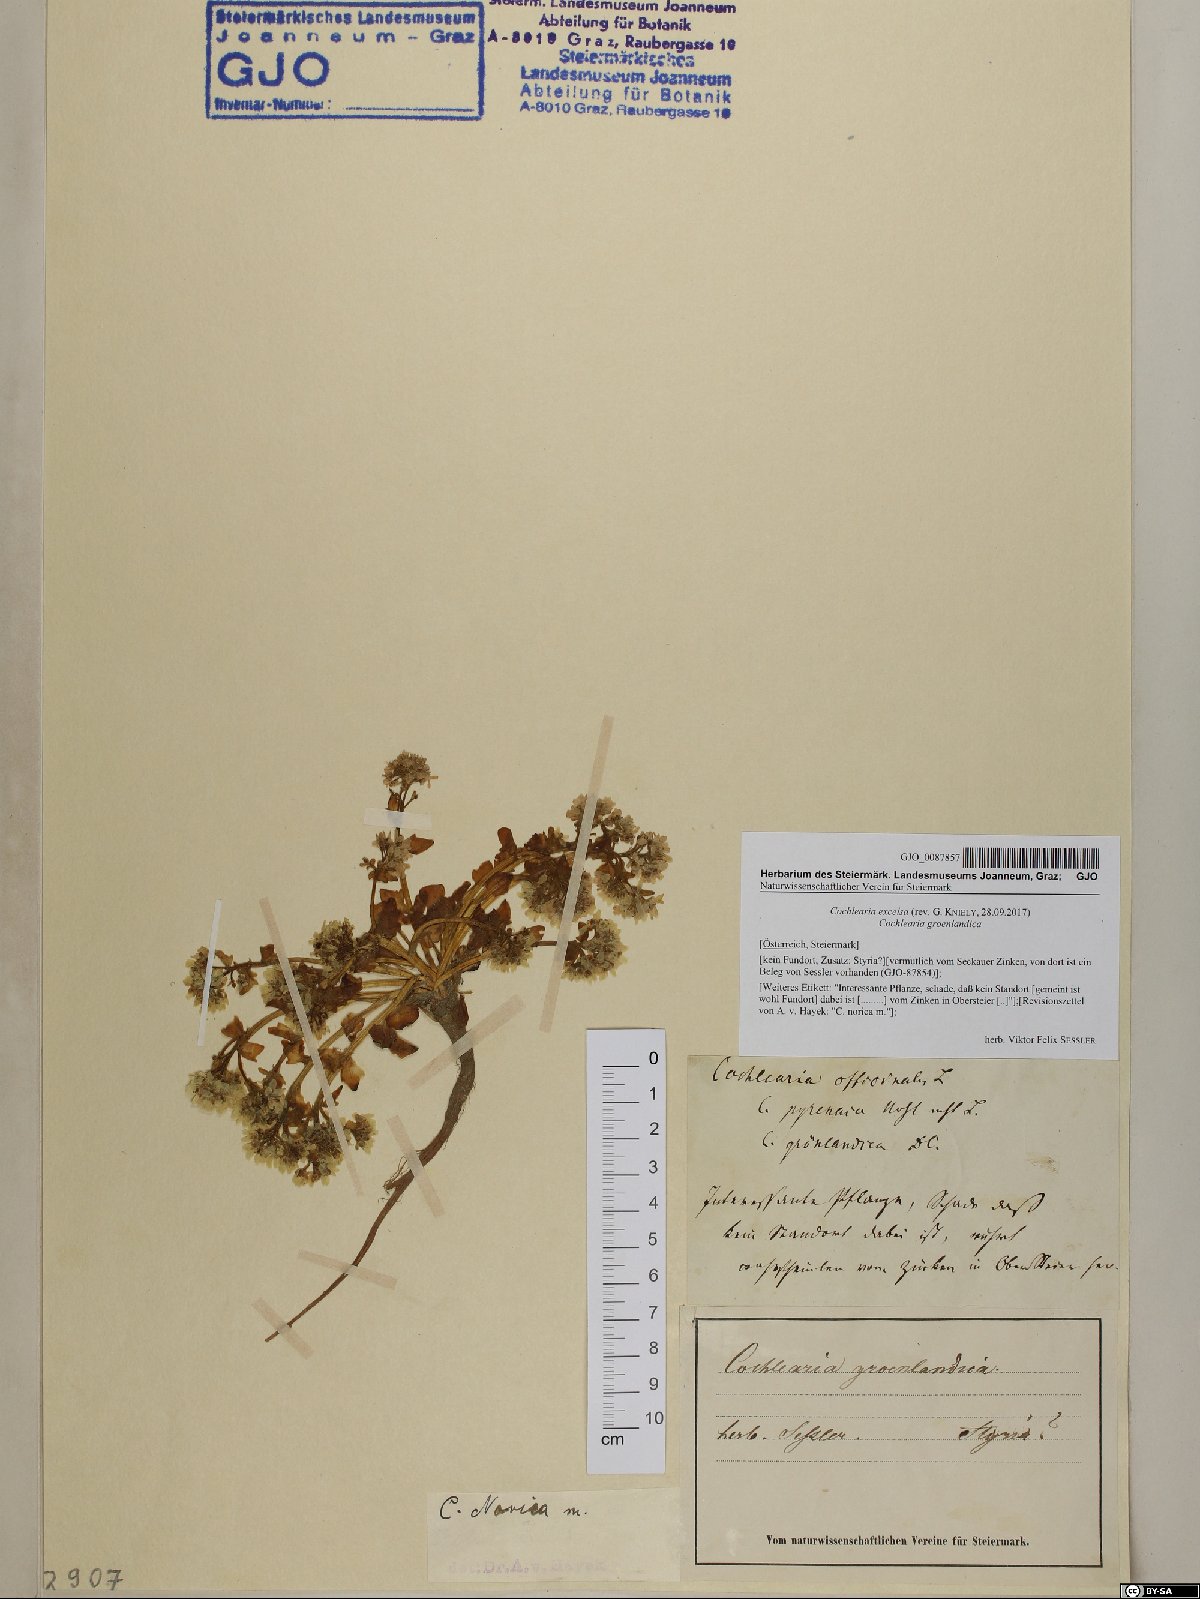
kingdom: Plantae
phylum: Tracheophyta
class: Magnoliopsida
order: Brassicales
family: Brassicaceae
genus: Cochlearia
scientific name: Cochlearia pyrenaica
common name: Upland scurvy-grass
